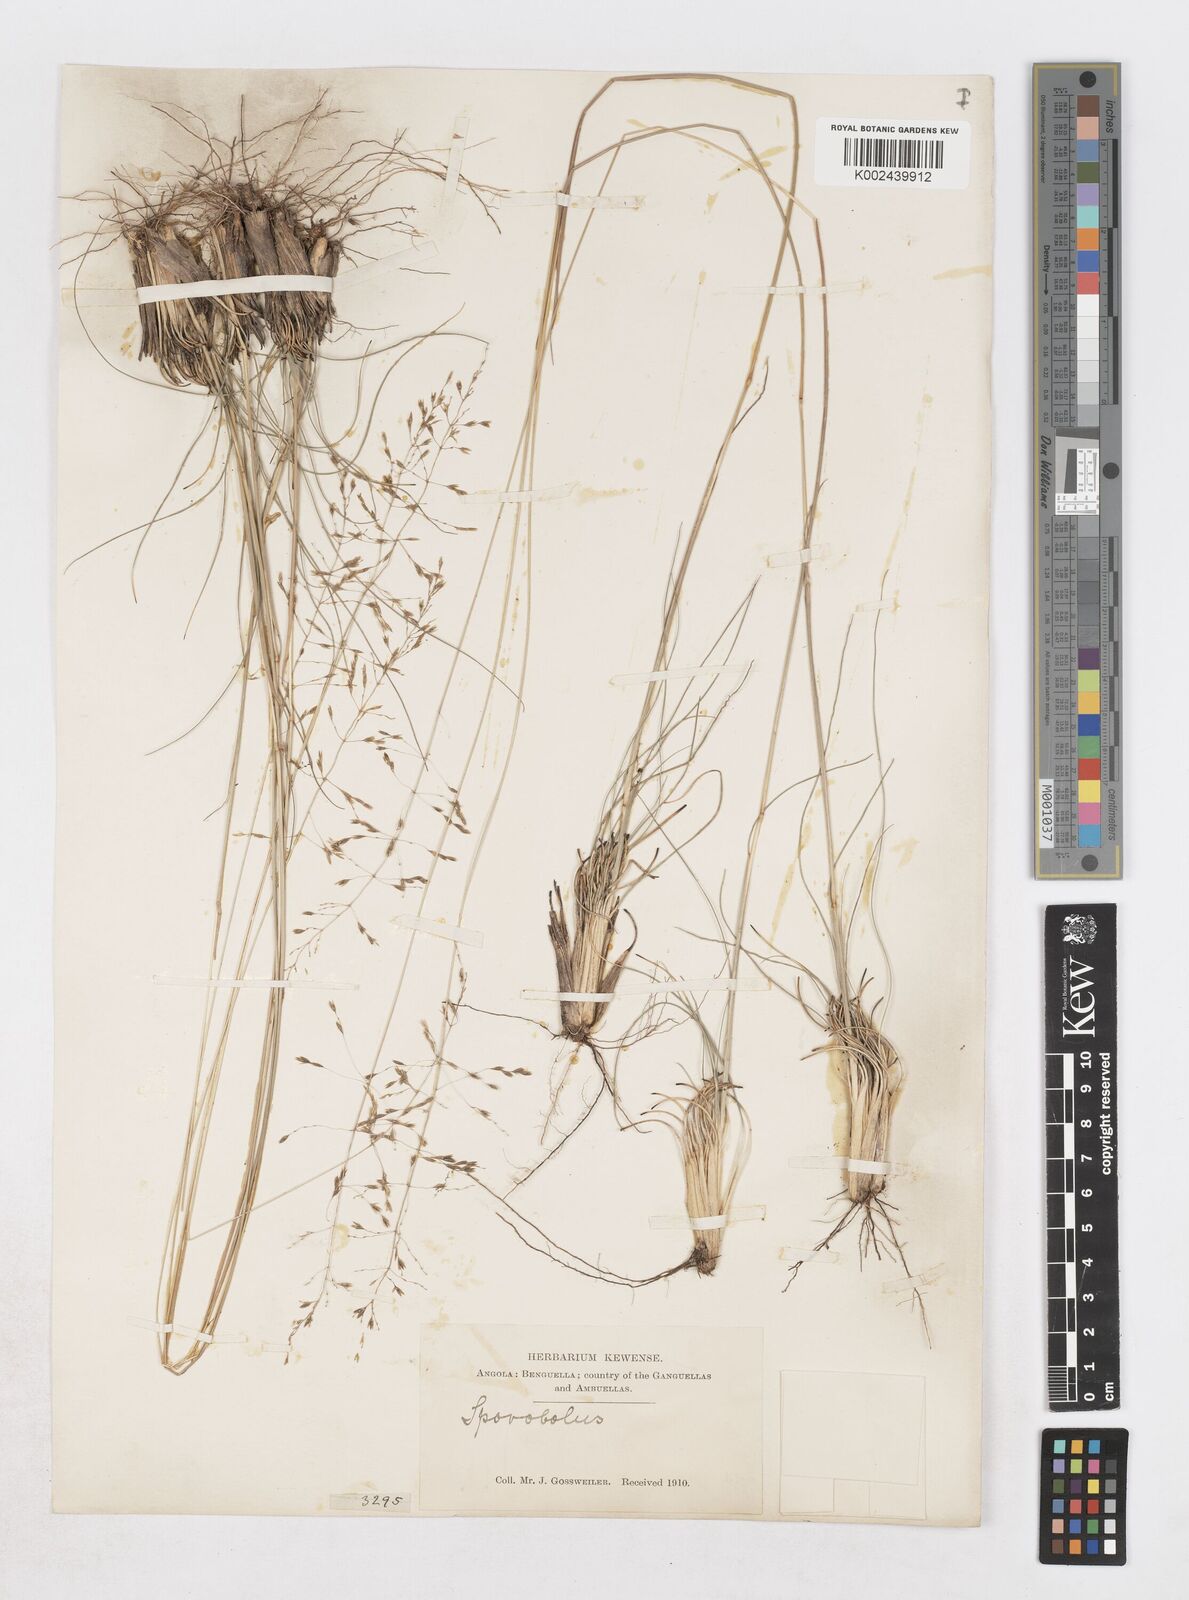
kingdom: Plantae
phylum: Tracheophyta
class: Liliopsida
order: Poales
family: Poaceae
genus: Sporobolus
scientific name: Sporobolus subulatus
